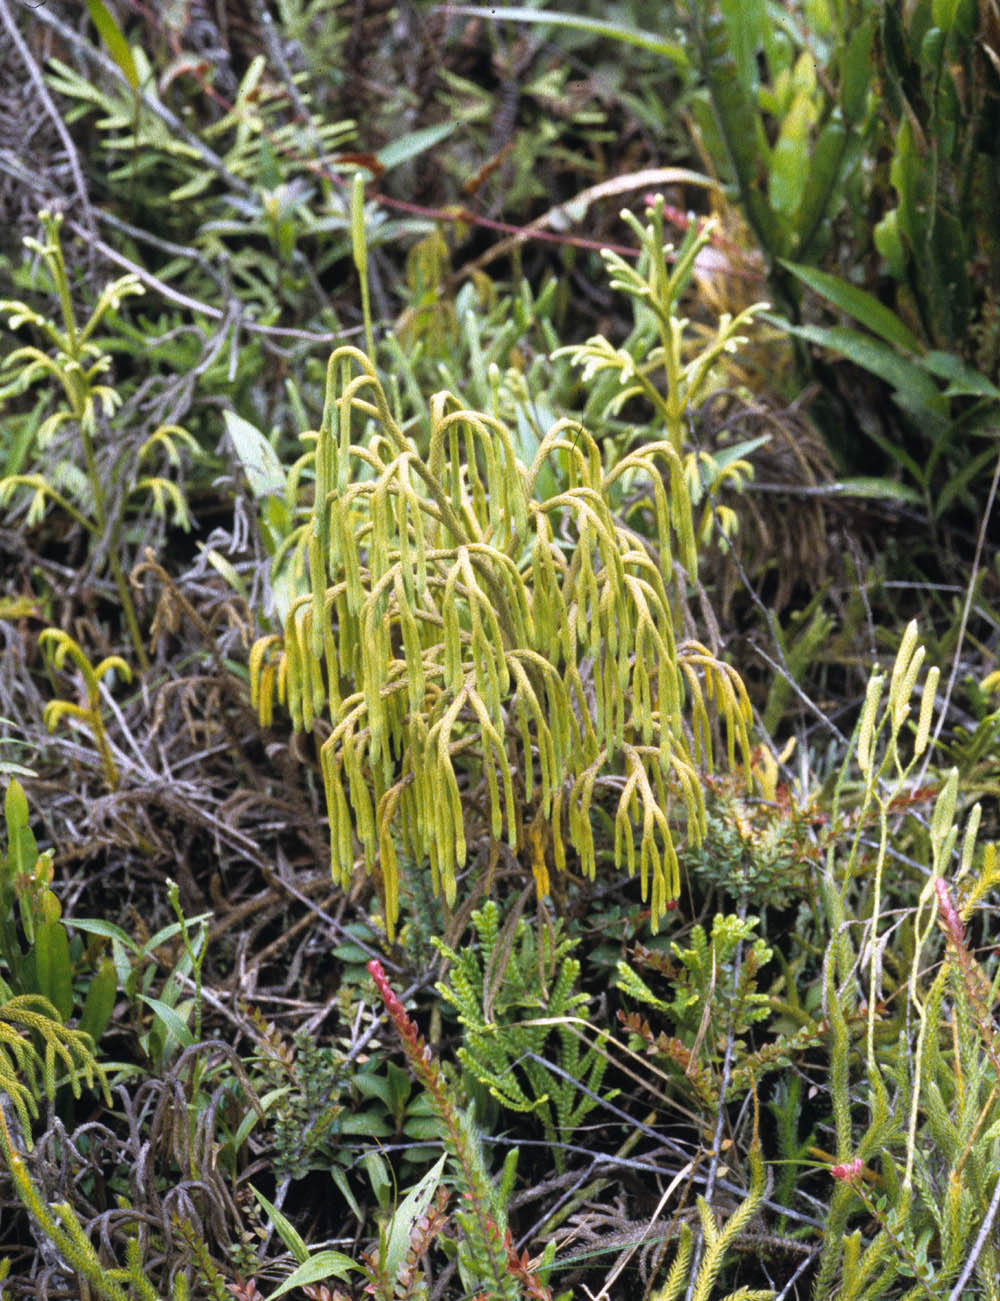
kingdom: Plantae
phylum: Tracheophyta
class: Lycopodiopsida
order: Lycopodiales
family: Lycopodiaceae
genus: Palhinhaea
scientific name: Palhinhaea riofrioi
